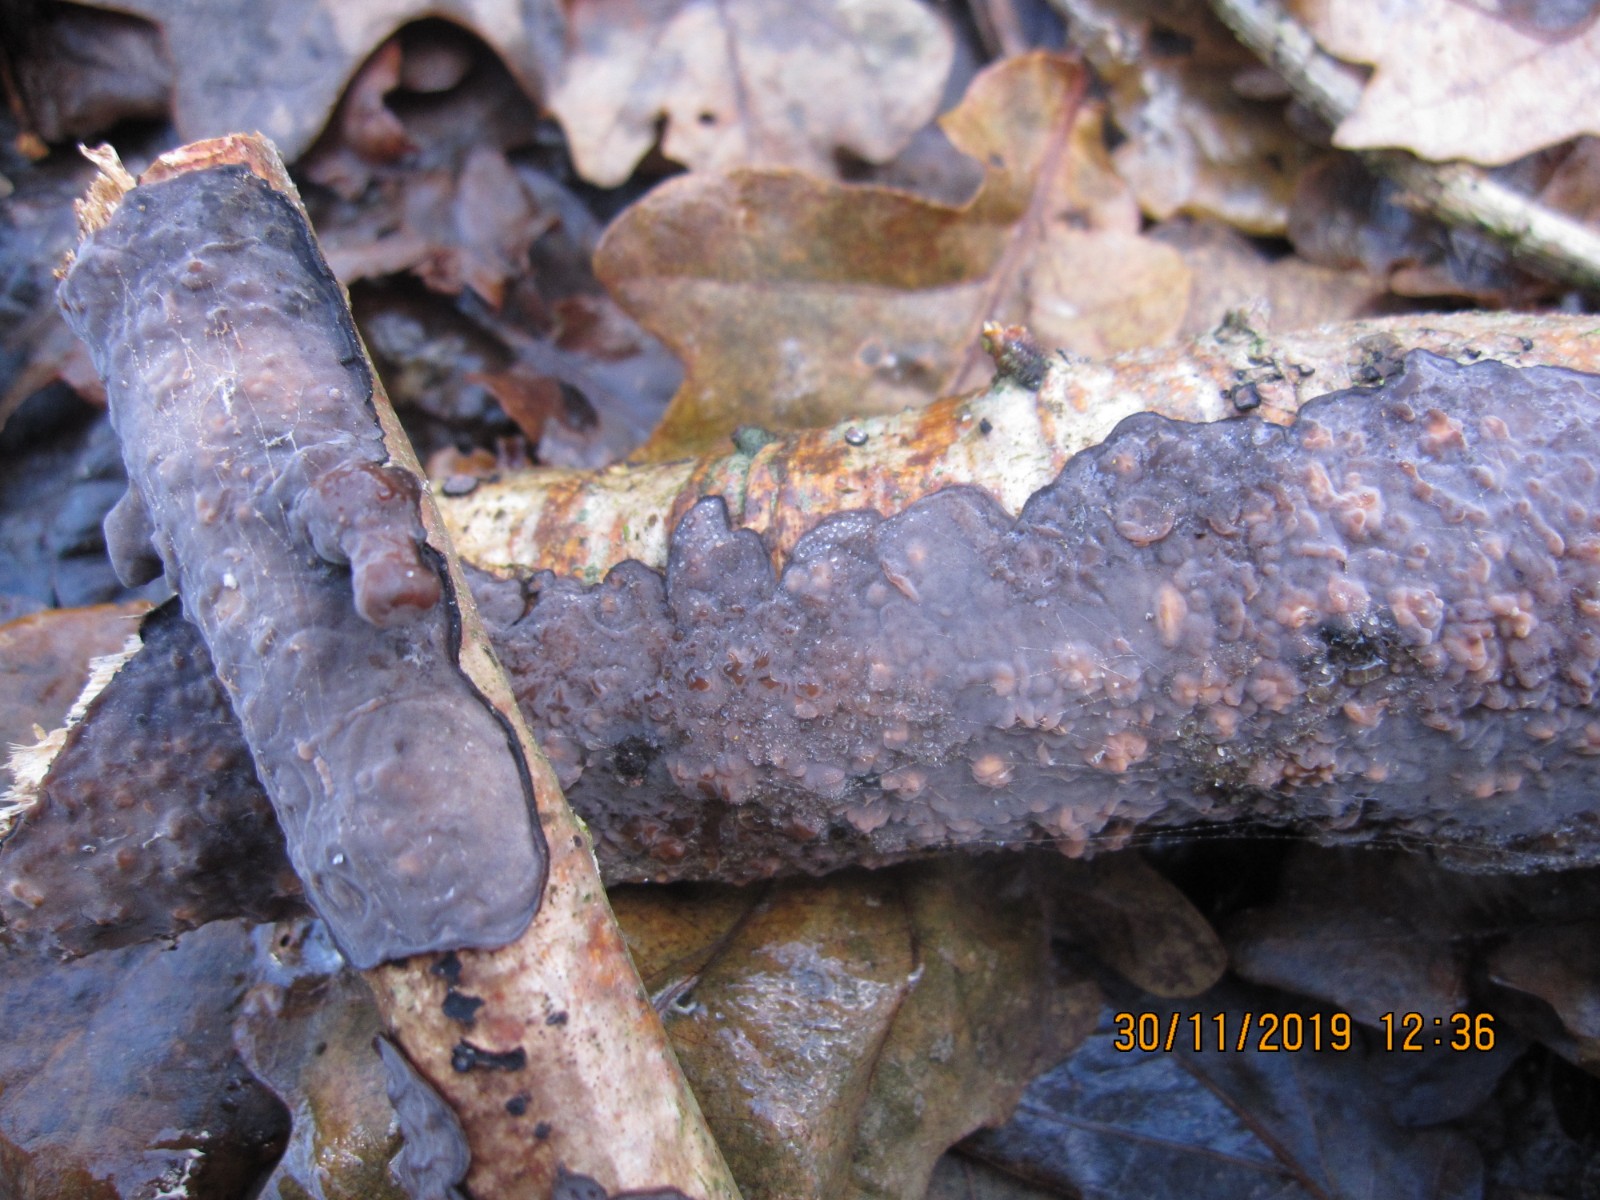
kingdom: Fungi
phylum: Basidiomycota
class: Agaricomycetes
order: Russulales
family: Peniophoraceae
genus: Peniophora
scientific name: Peniophora quercina
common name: ege-voksskind
